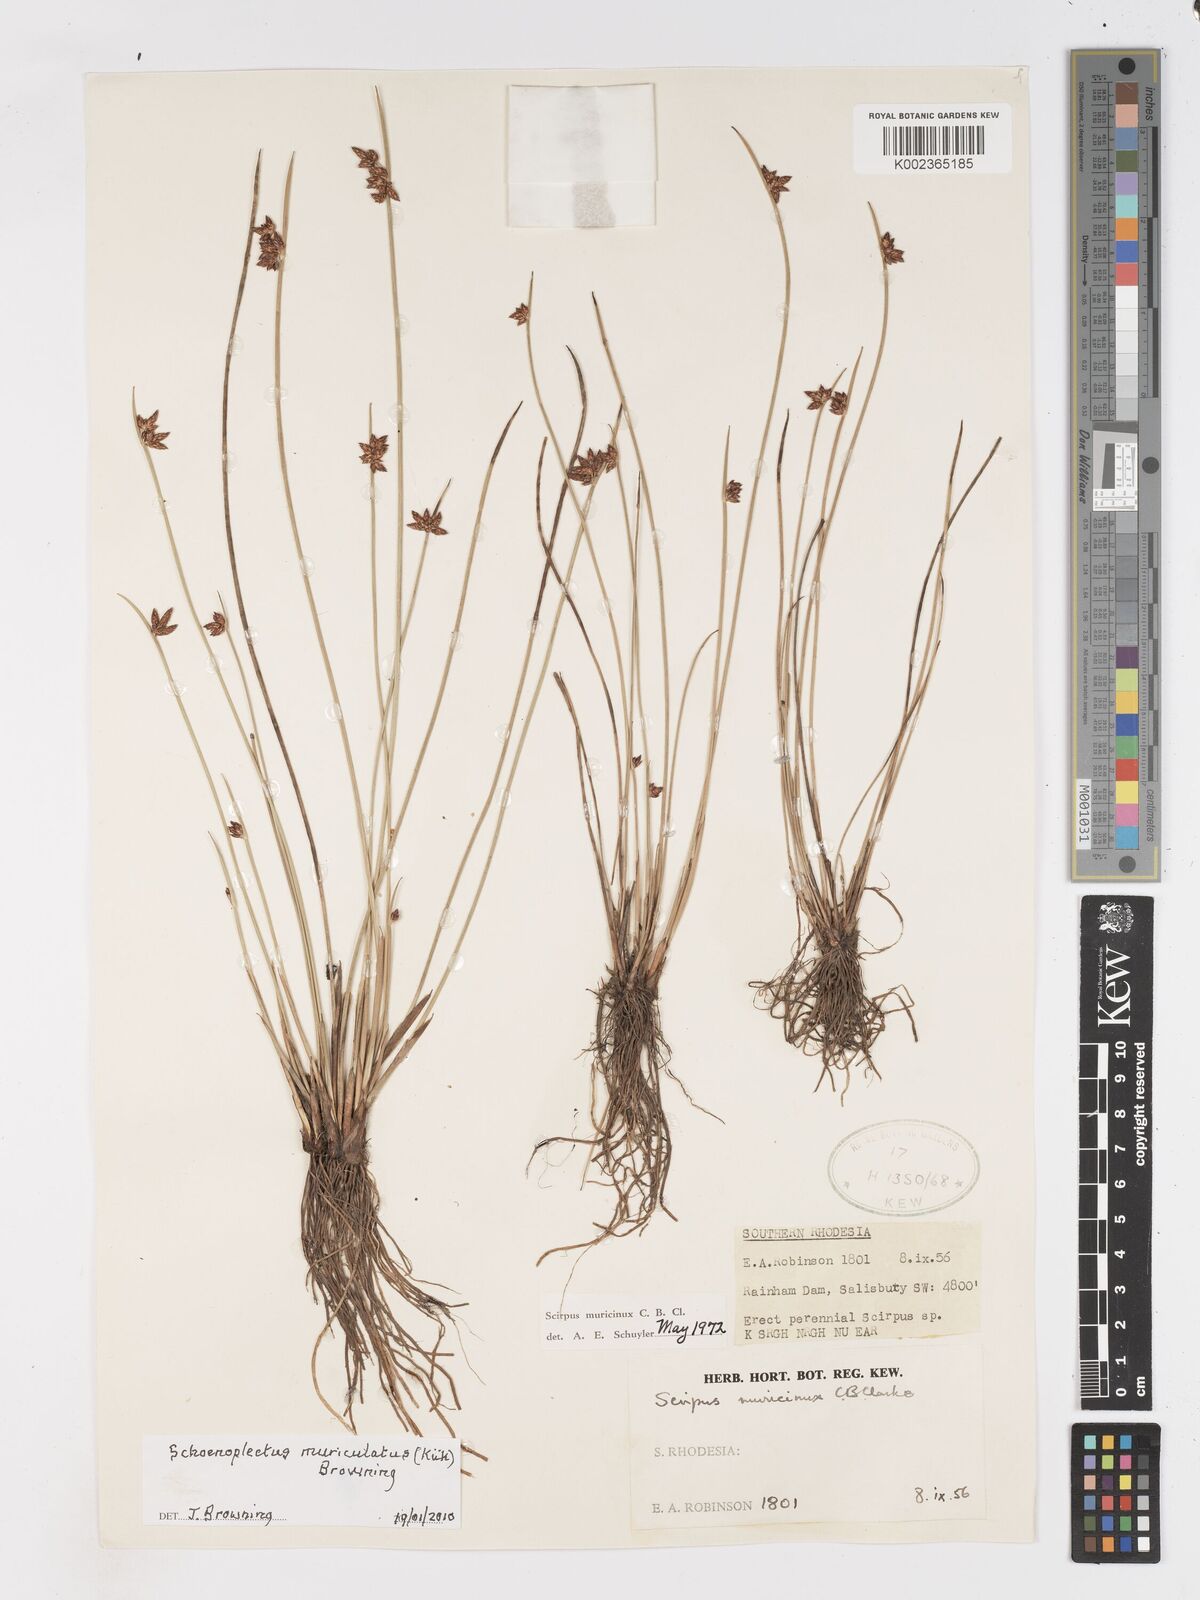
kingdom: Plantae
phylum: Tracheophyta
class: Liliopsida
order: Poales
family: Cyperaceae
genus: Schoenoplectiella
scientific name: Schoenoplectiella muricinux
